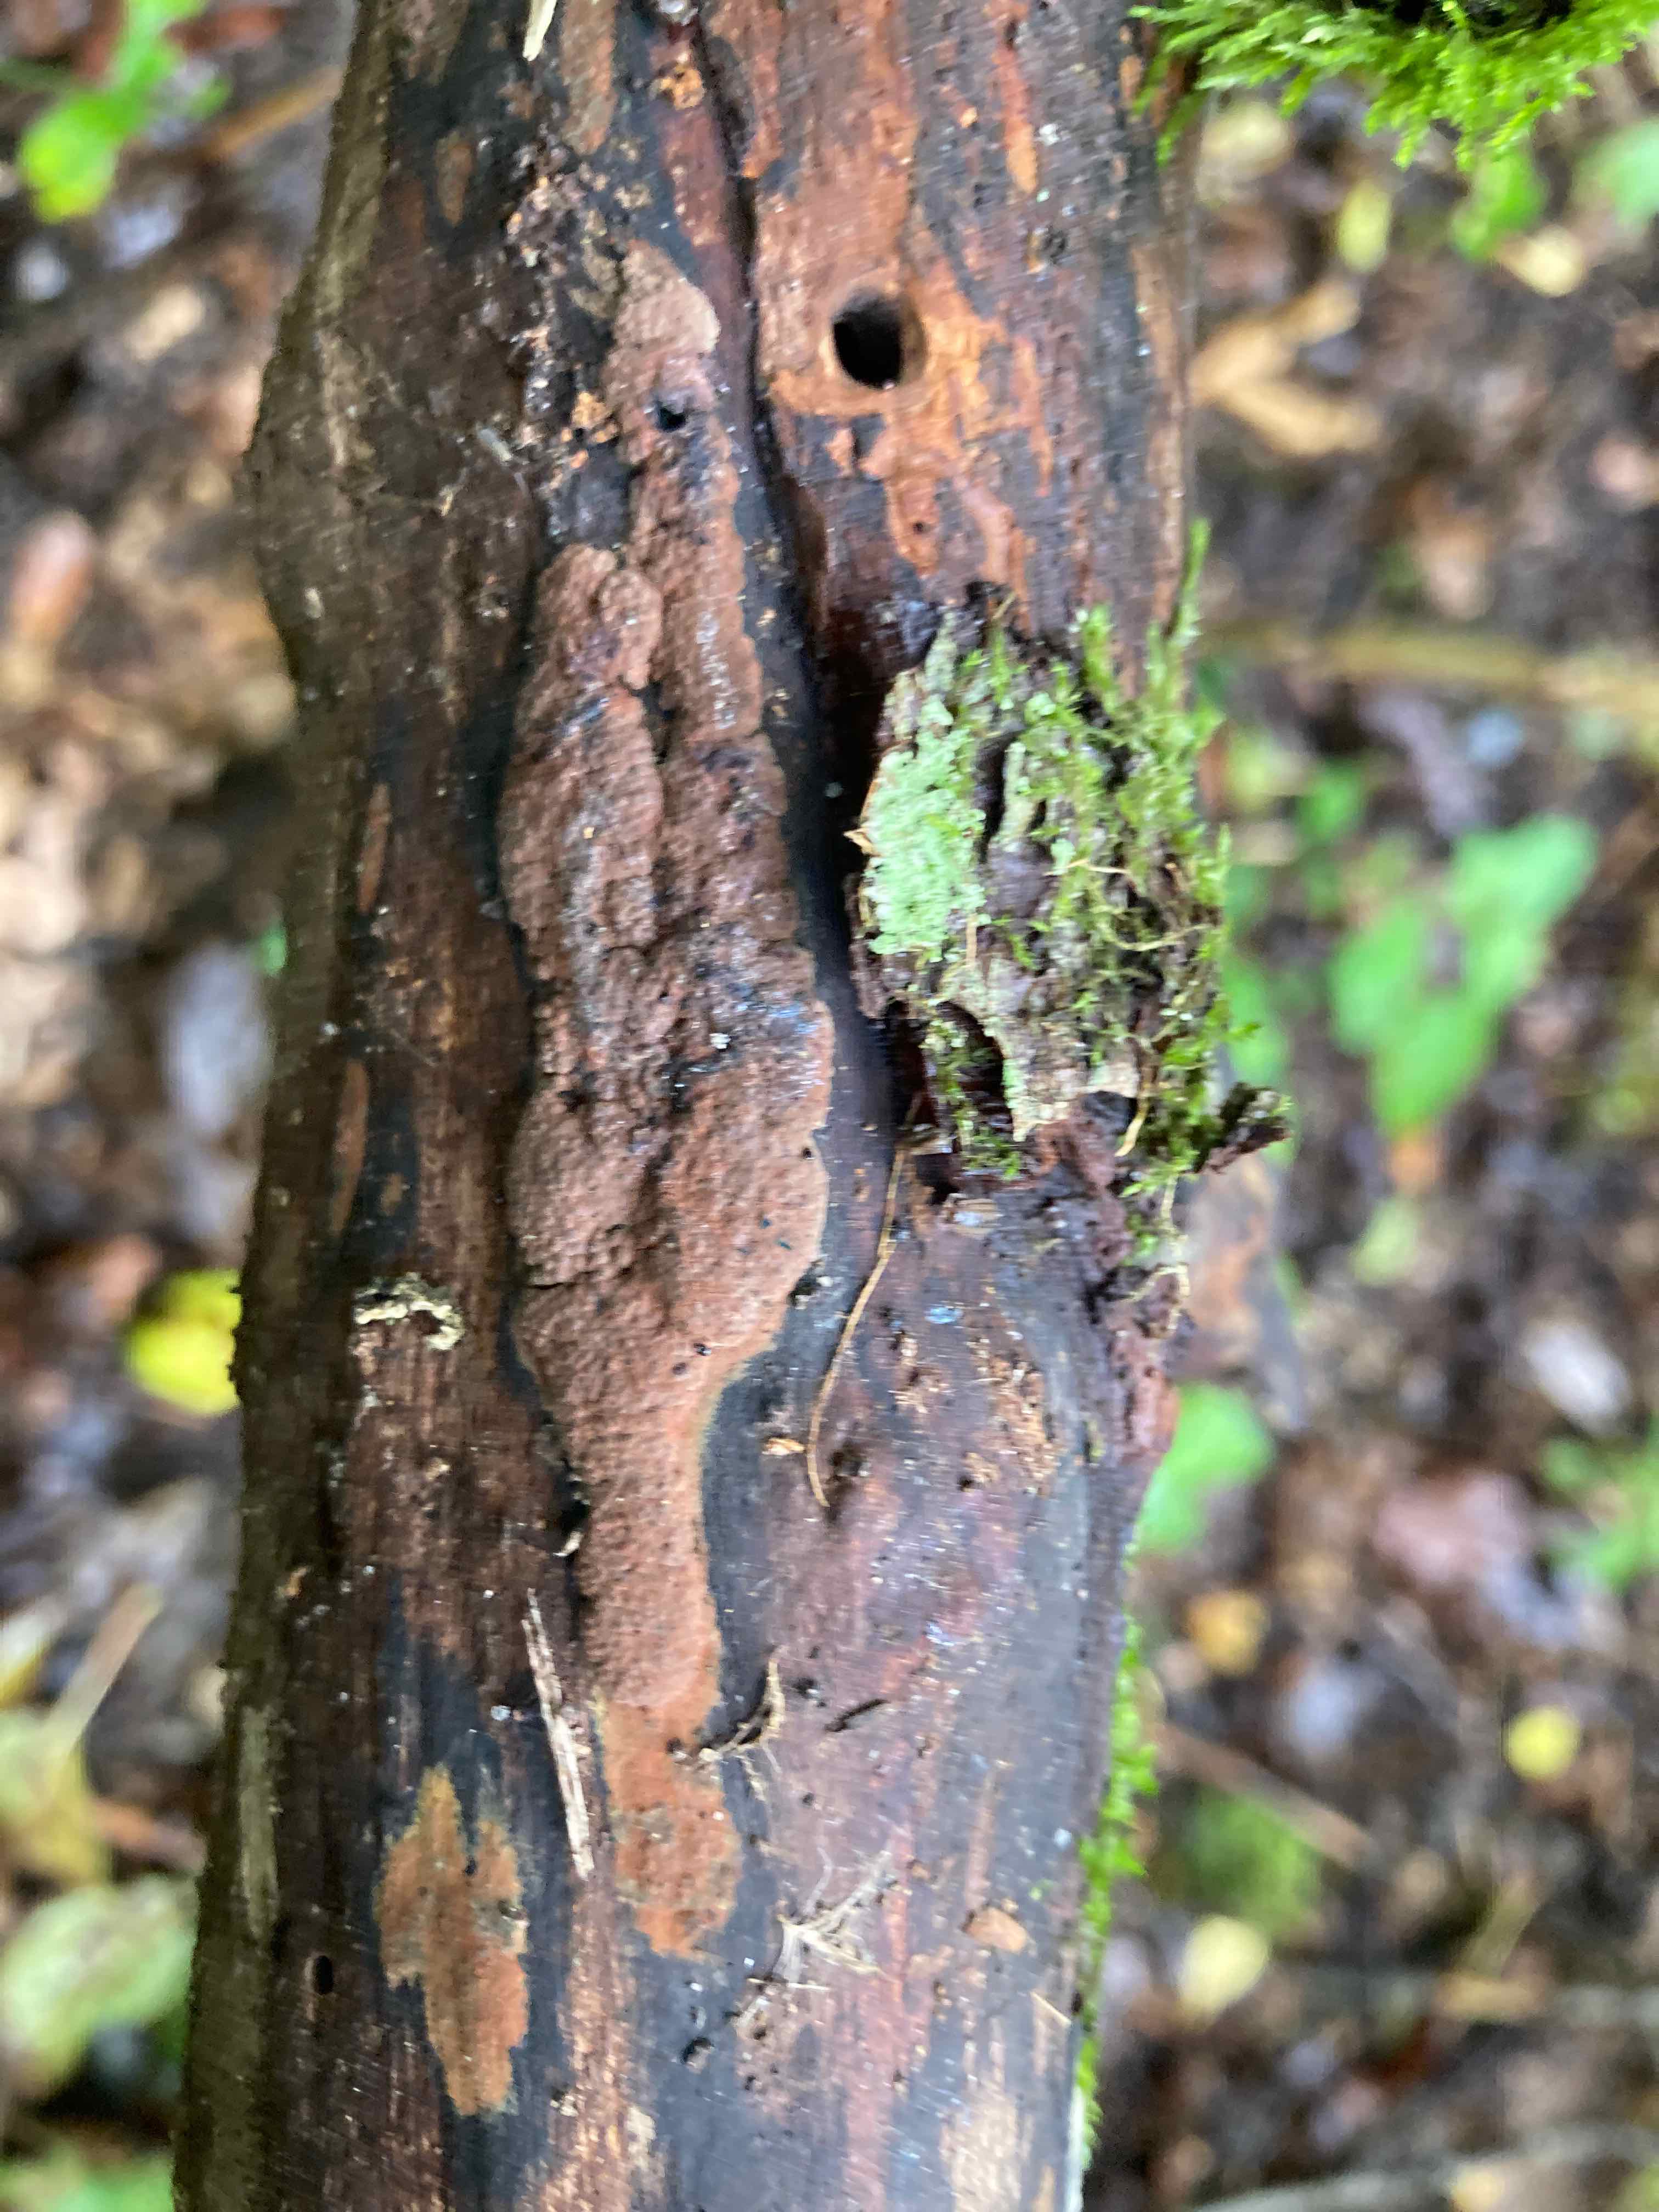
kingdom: Fungi
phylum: Ascomycota
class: Sordariomycetes
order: Xylariales
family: Hypoxylaceae
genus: Hypoxylon
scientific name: Hypoxylon rubiginosum
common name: rustfarvet kulbær
